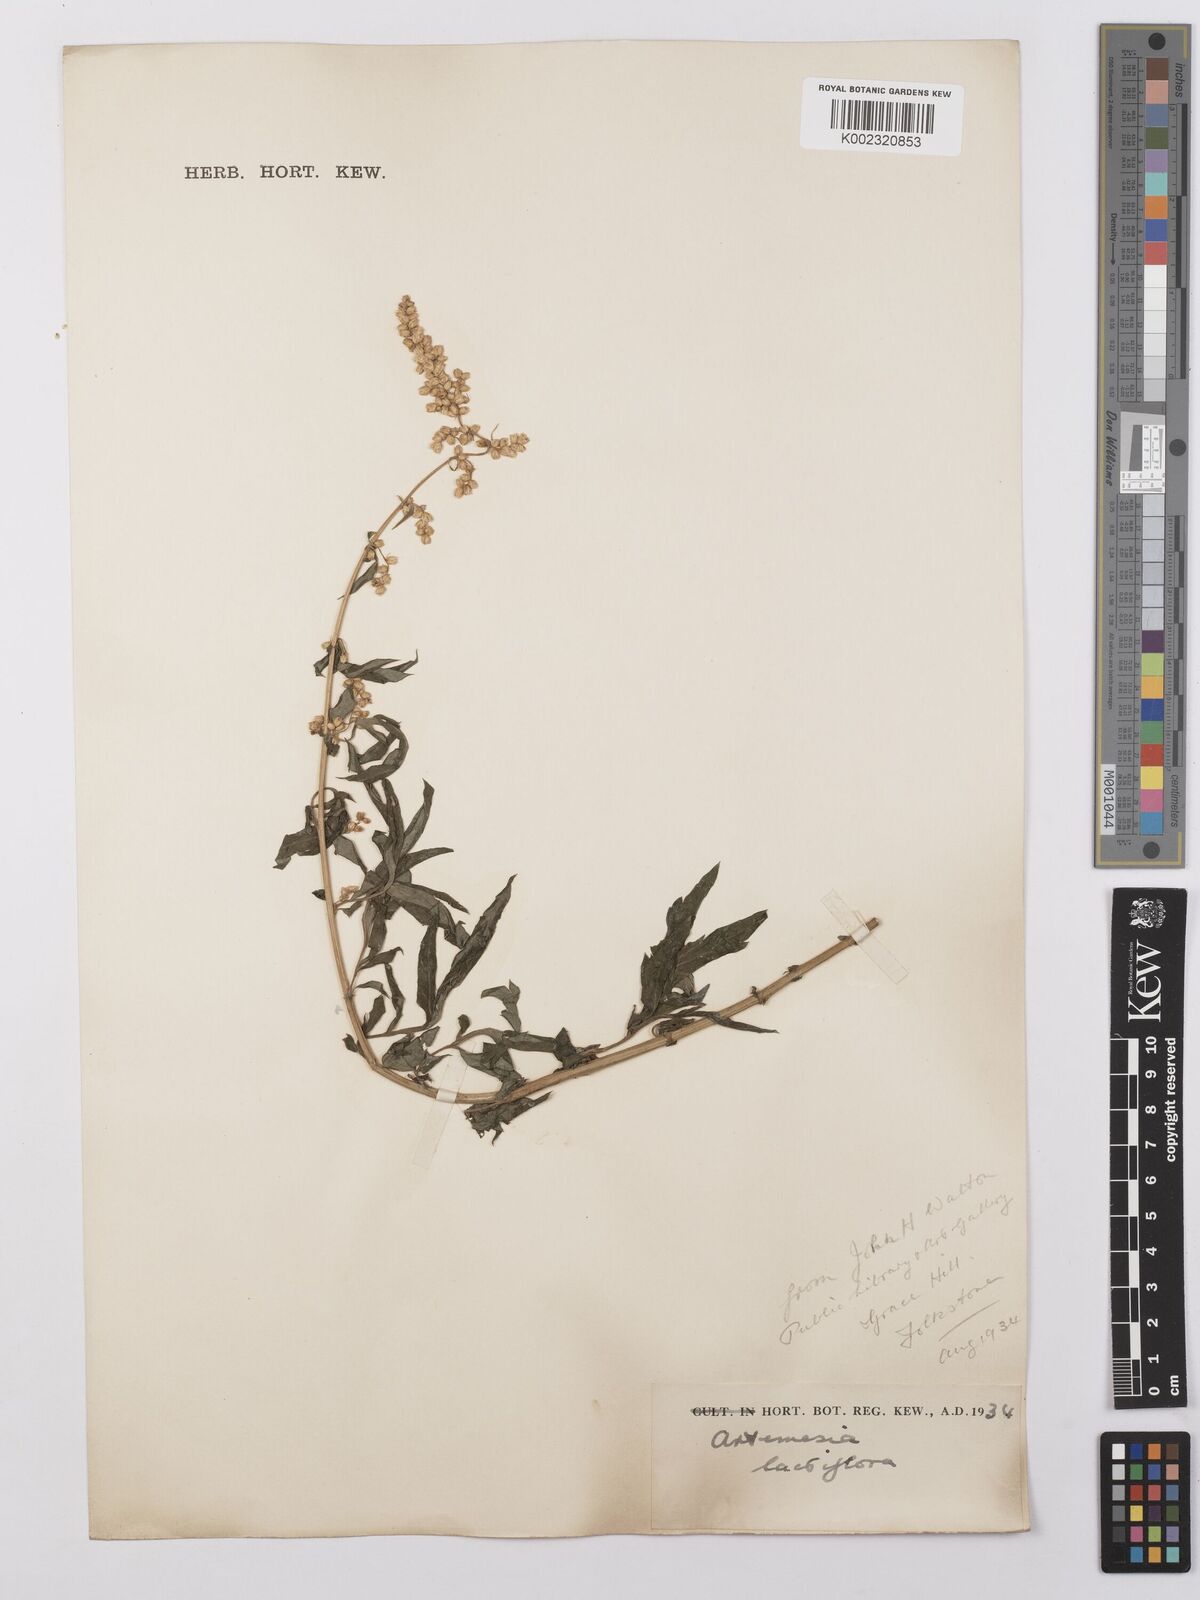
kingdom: Plantae
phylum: Tracheophyta
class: Magnoliopsida
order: Asterales
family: Asteraceae
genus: Artemisia
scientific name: Artemisia lactiflora
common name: White mugwort
